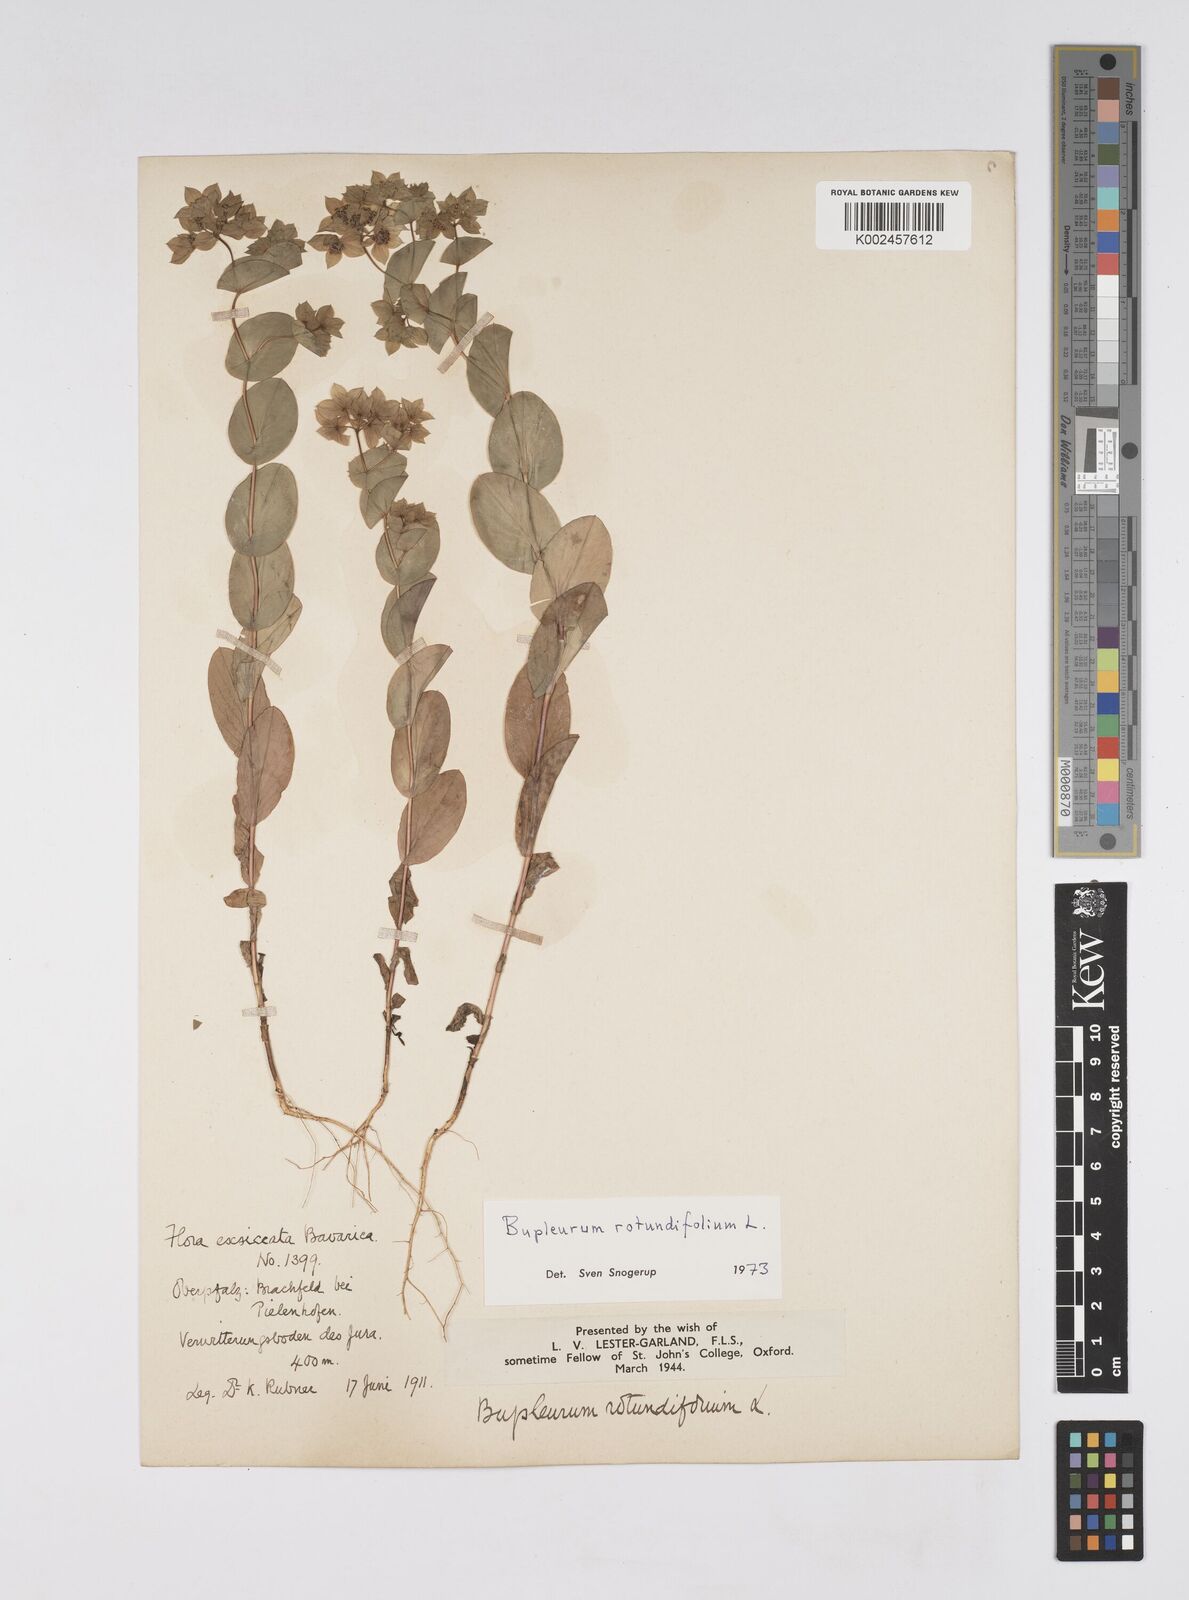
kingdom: Plantae
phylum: Tracheophyta
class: Magnoliopsida
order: Apiales
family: Apiaceae
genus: Bupleurum
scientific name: Bupleurum rotundifolium
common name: Thorow-wax
